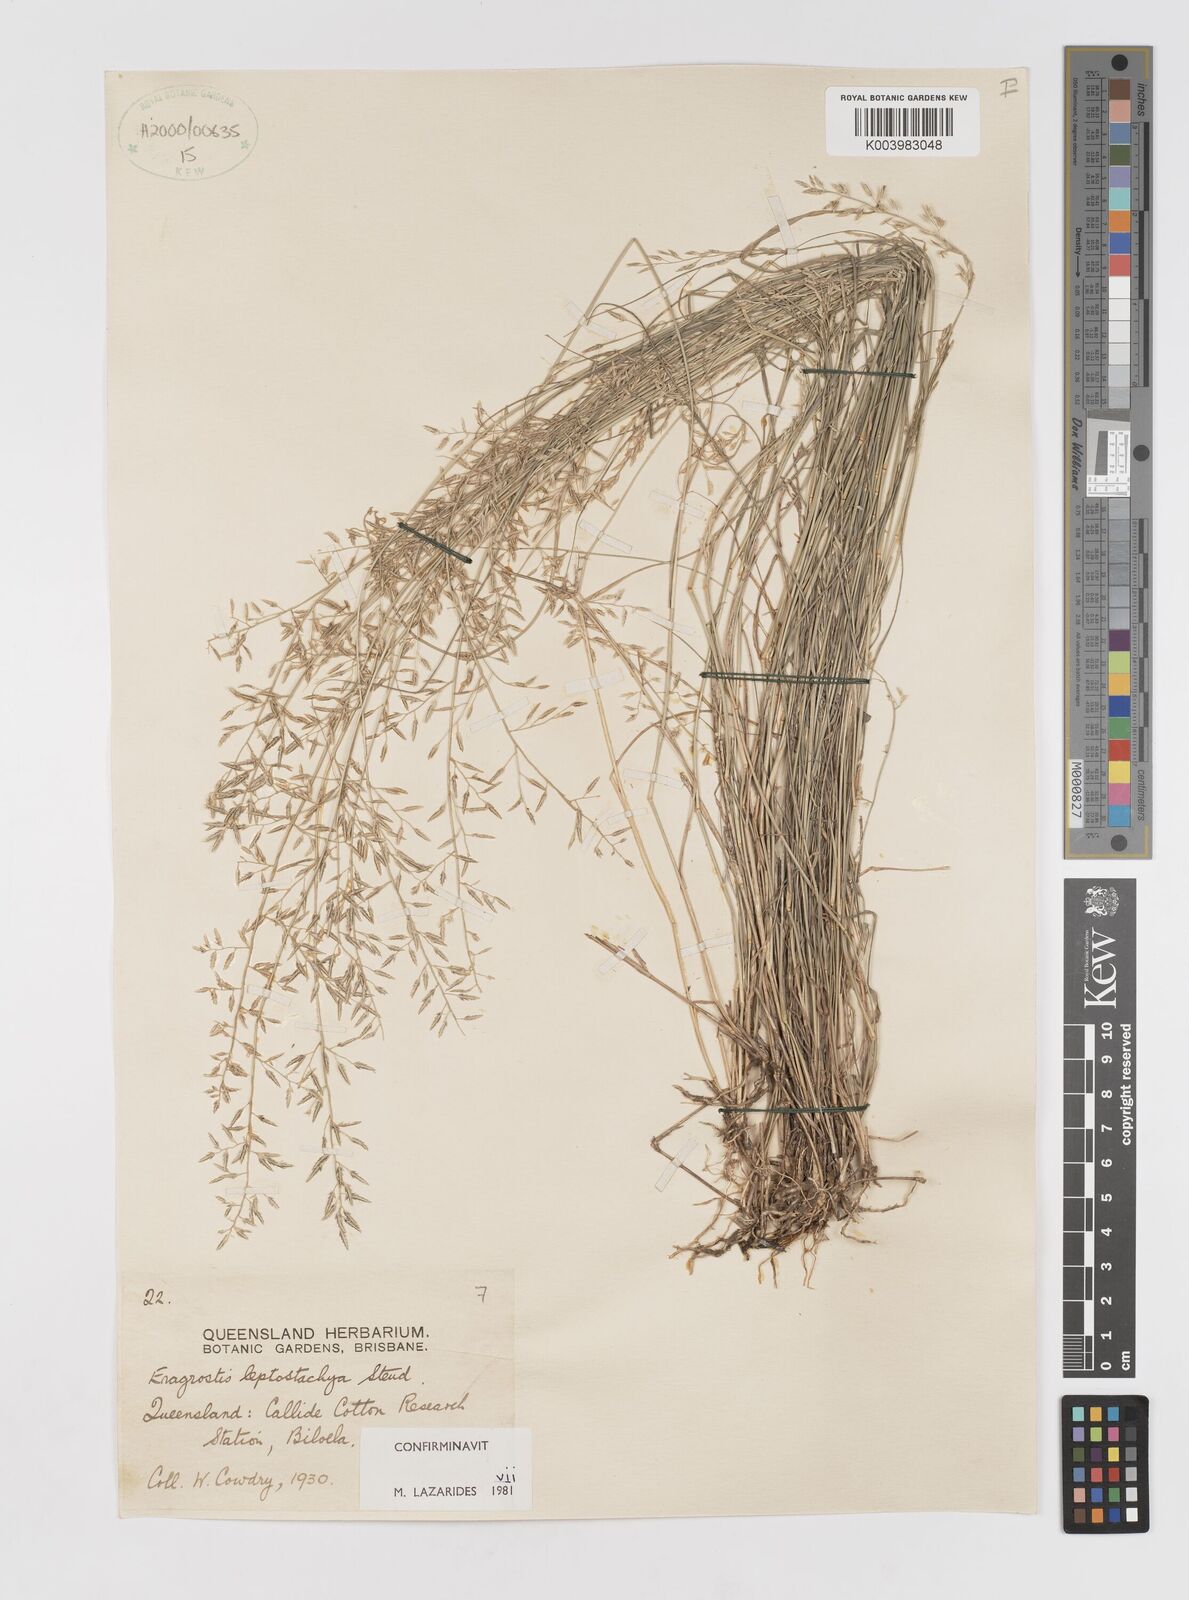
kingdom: Plantae
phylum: Tracheophyta
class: Liliopsida
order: Poales
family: Poaceae
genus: Eragrostis
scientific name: Eragrostis leptostachya
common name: Australian lovegrass
